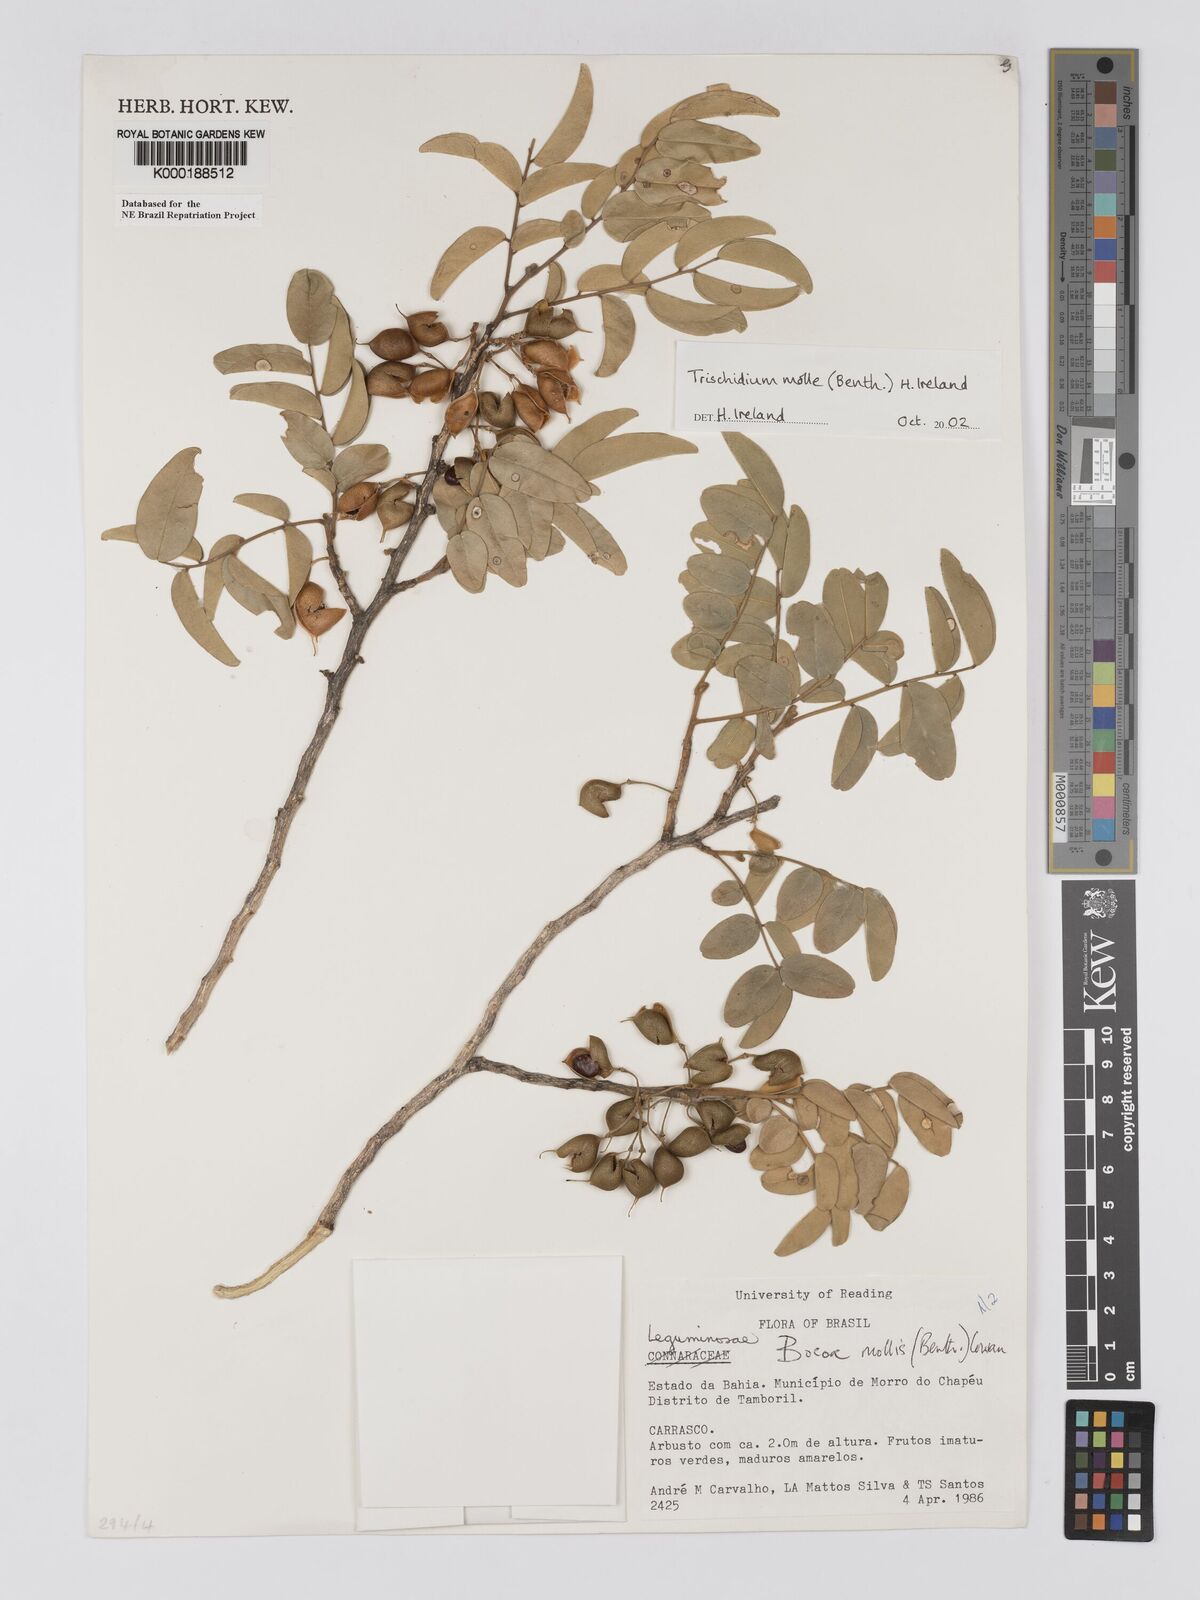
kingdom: Plantae
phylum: Tracheophyta
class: Magnoliopsida
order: Fabales
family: Fabaceae
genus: Trischidium
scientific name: Trischidium
